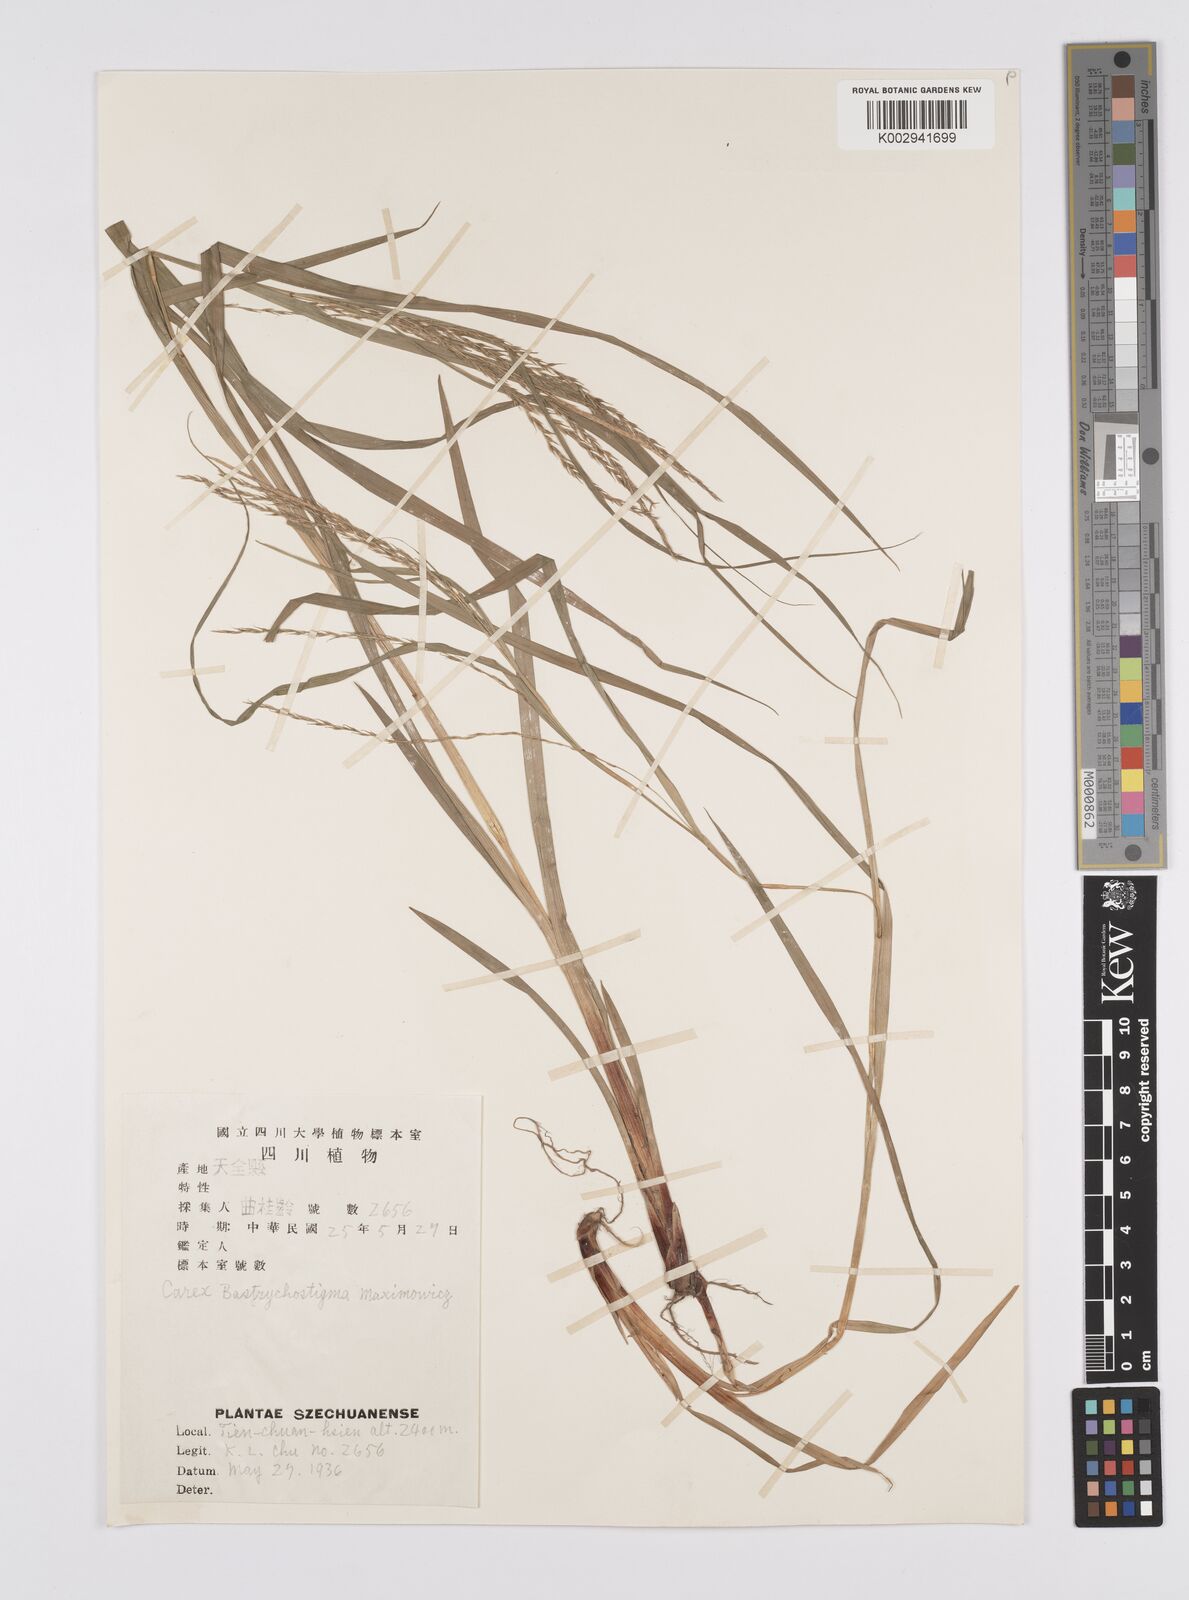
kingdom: Plantae
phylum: Tracheophyta
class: Liliopsida
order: Poales
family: Cyperaceae
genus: Carex
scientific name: Carex finitima
